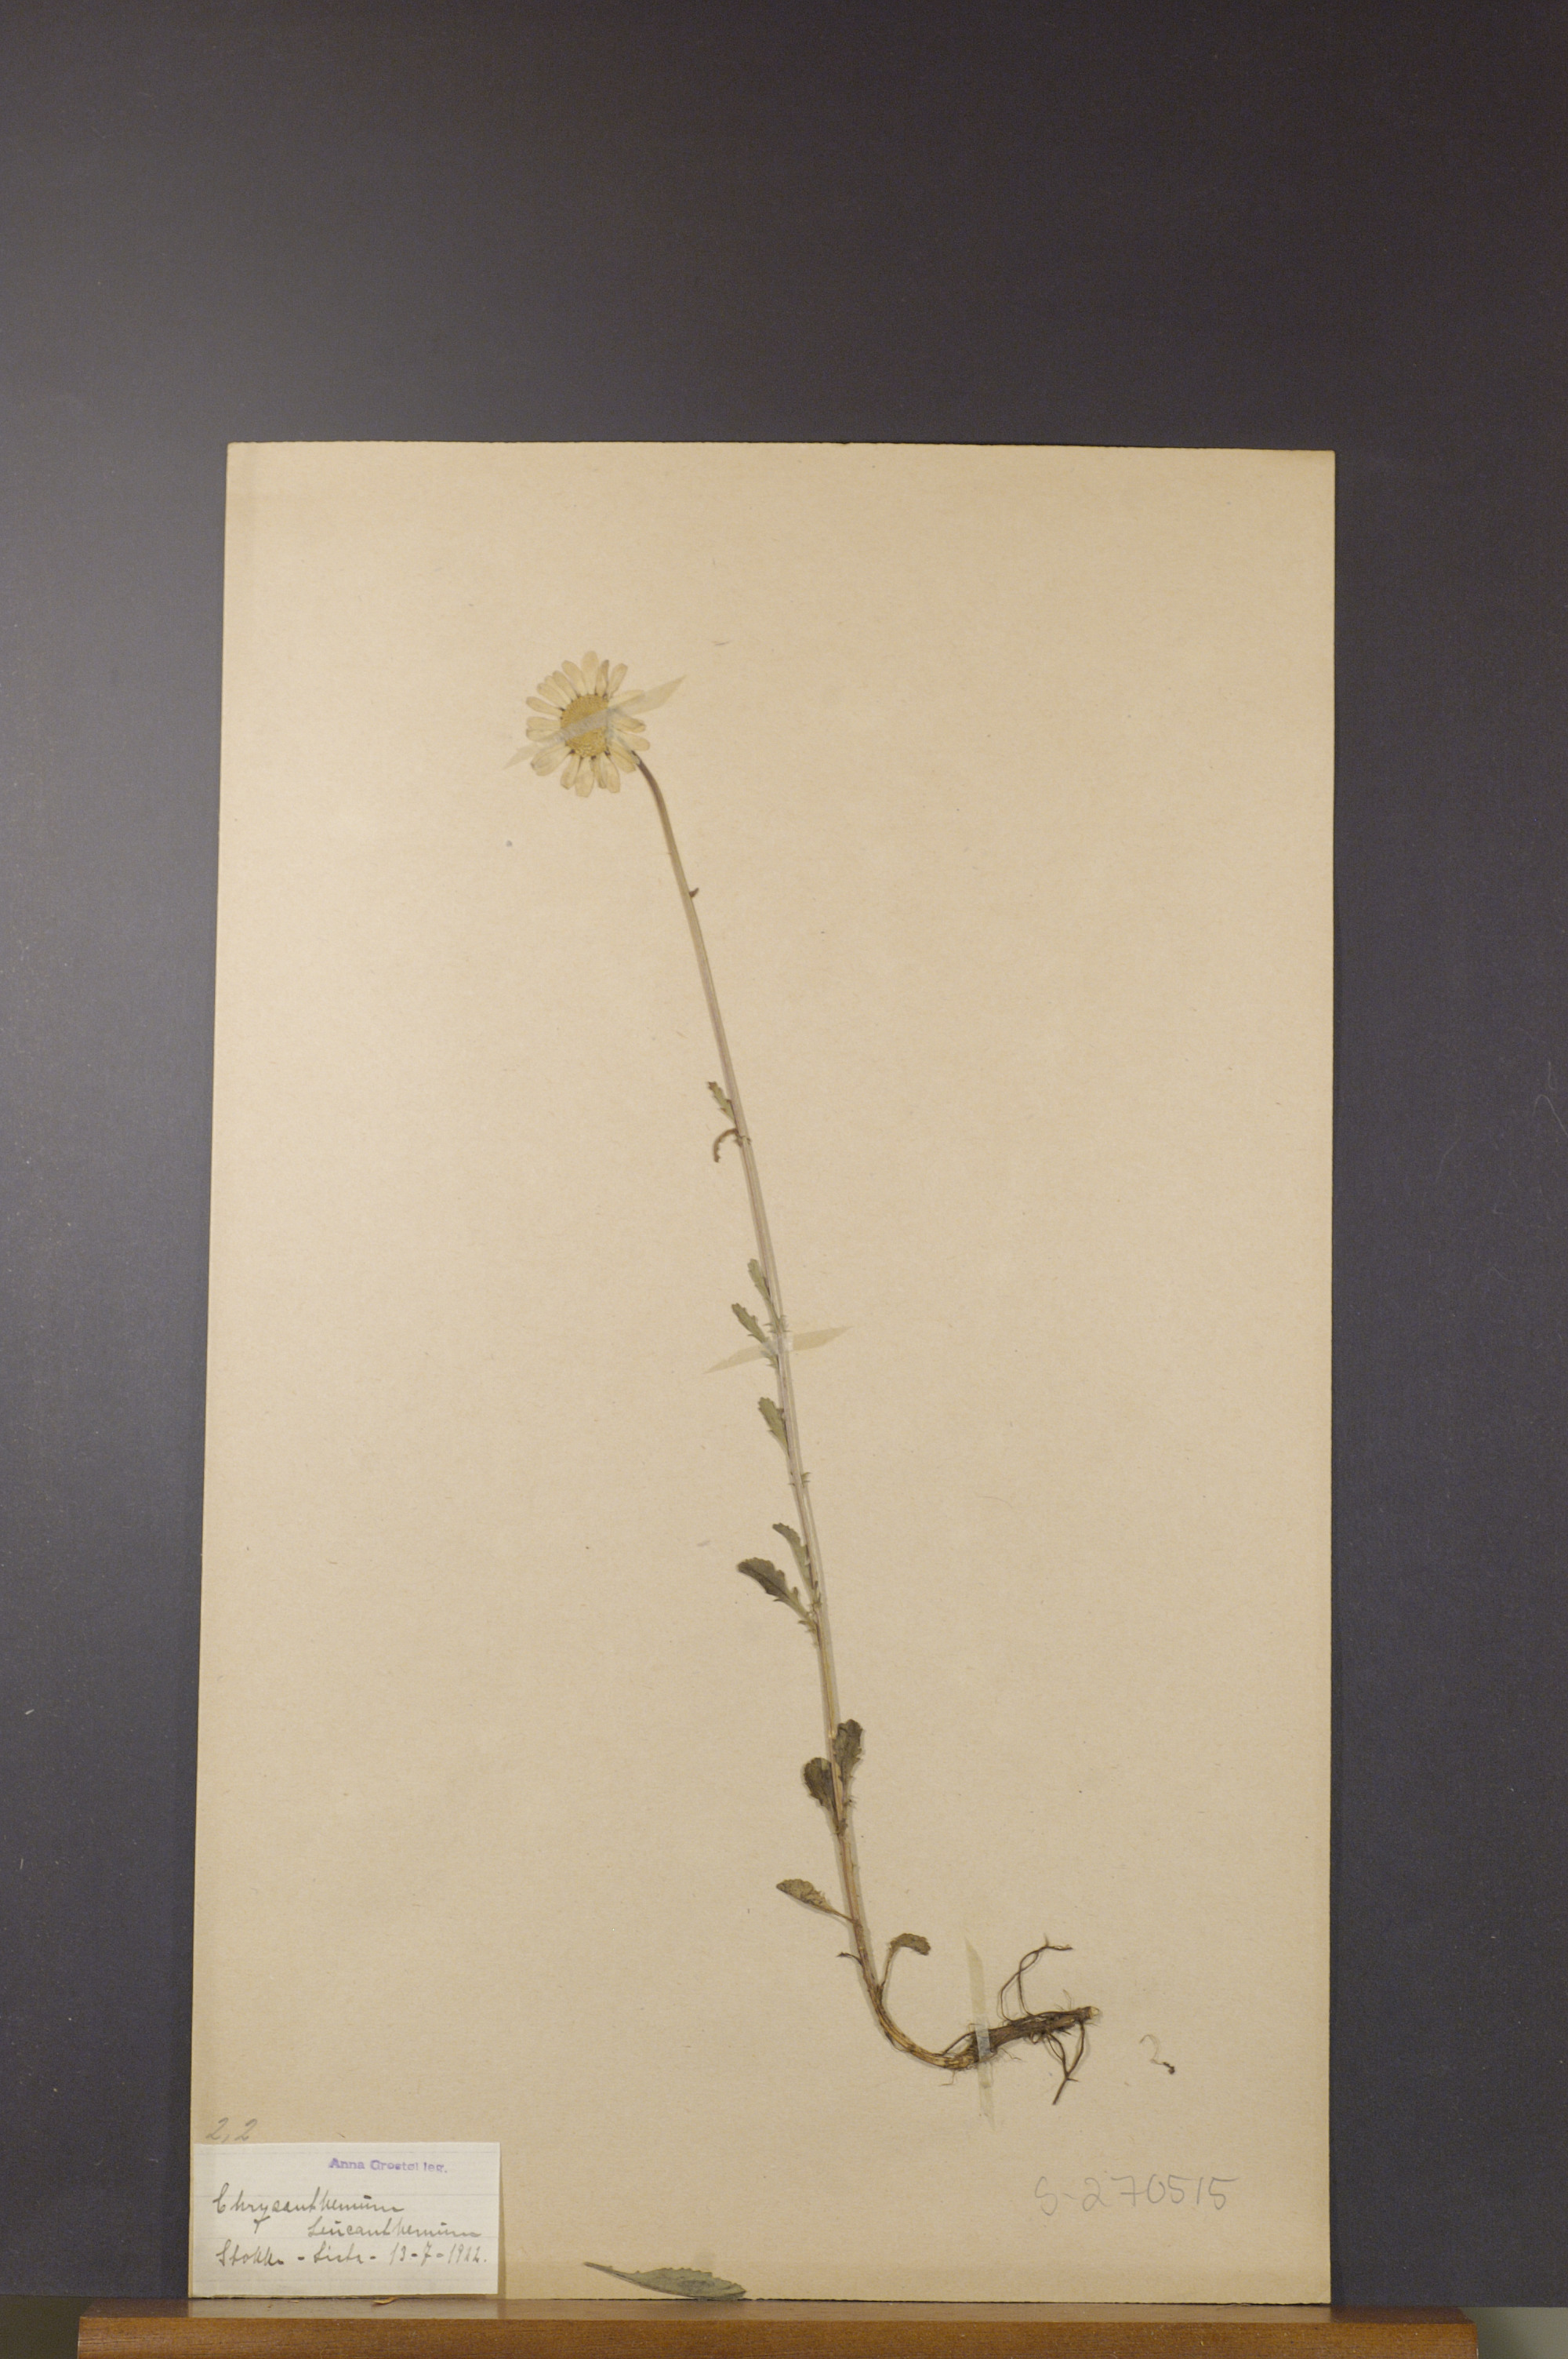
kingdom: Plantae
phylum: Tracheophyta
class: Magnoliopsida
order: Asterales
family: Asteraceae
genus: Leucanthemum
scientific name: Leucanthemum vulgare
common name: Oxeye daisy
